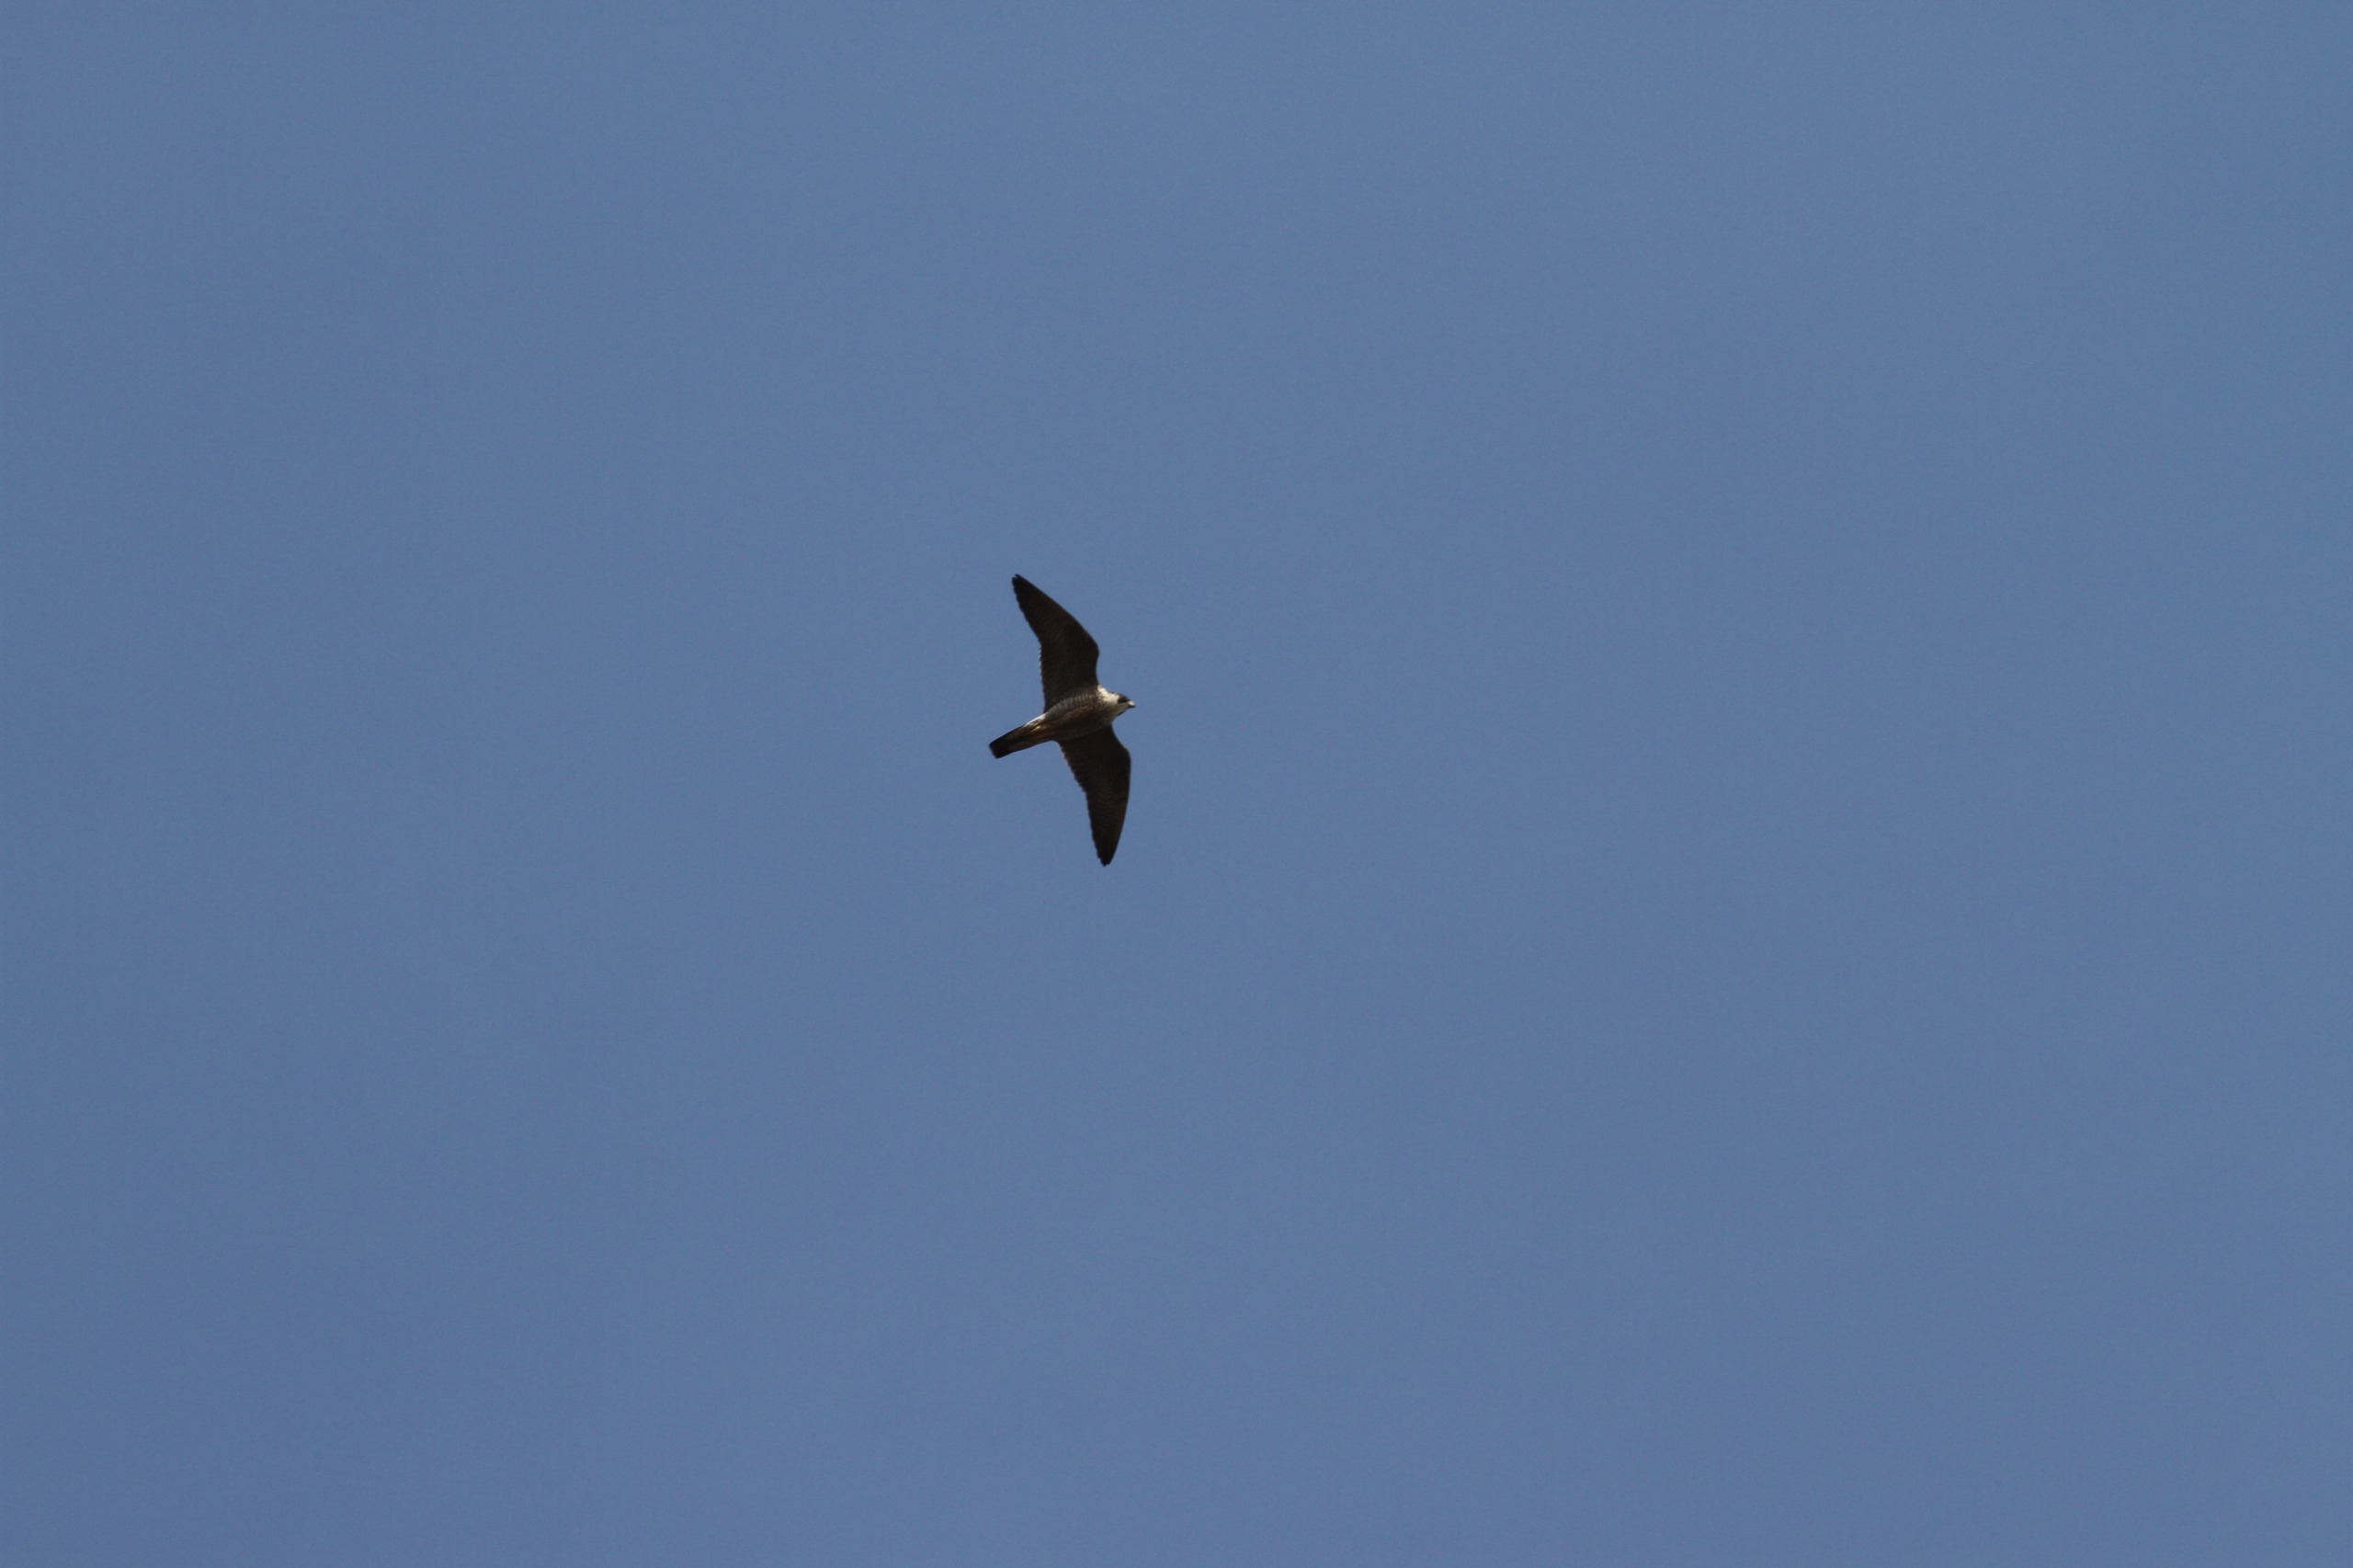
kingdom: Animalia
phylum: Chordata
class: Aves
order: Falconiformes
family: Falconidae
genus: Falco
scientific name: Falco peregrinus
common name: Vandrefalk
